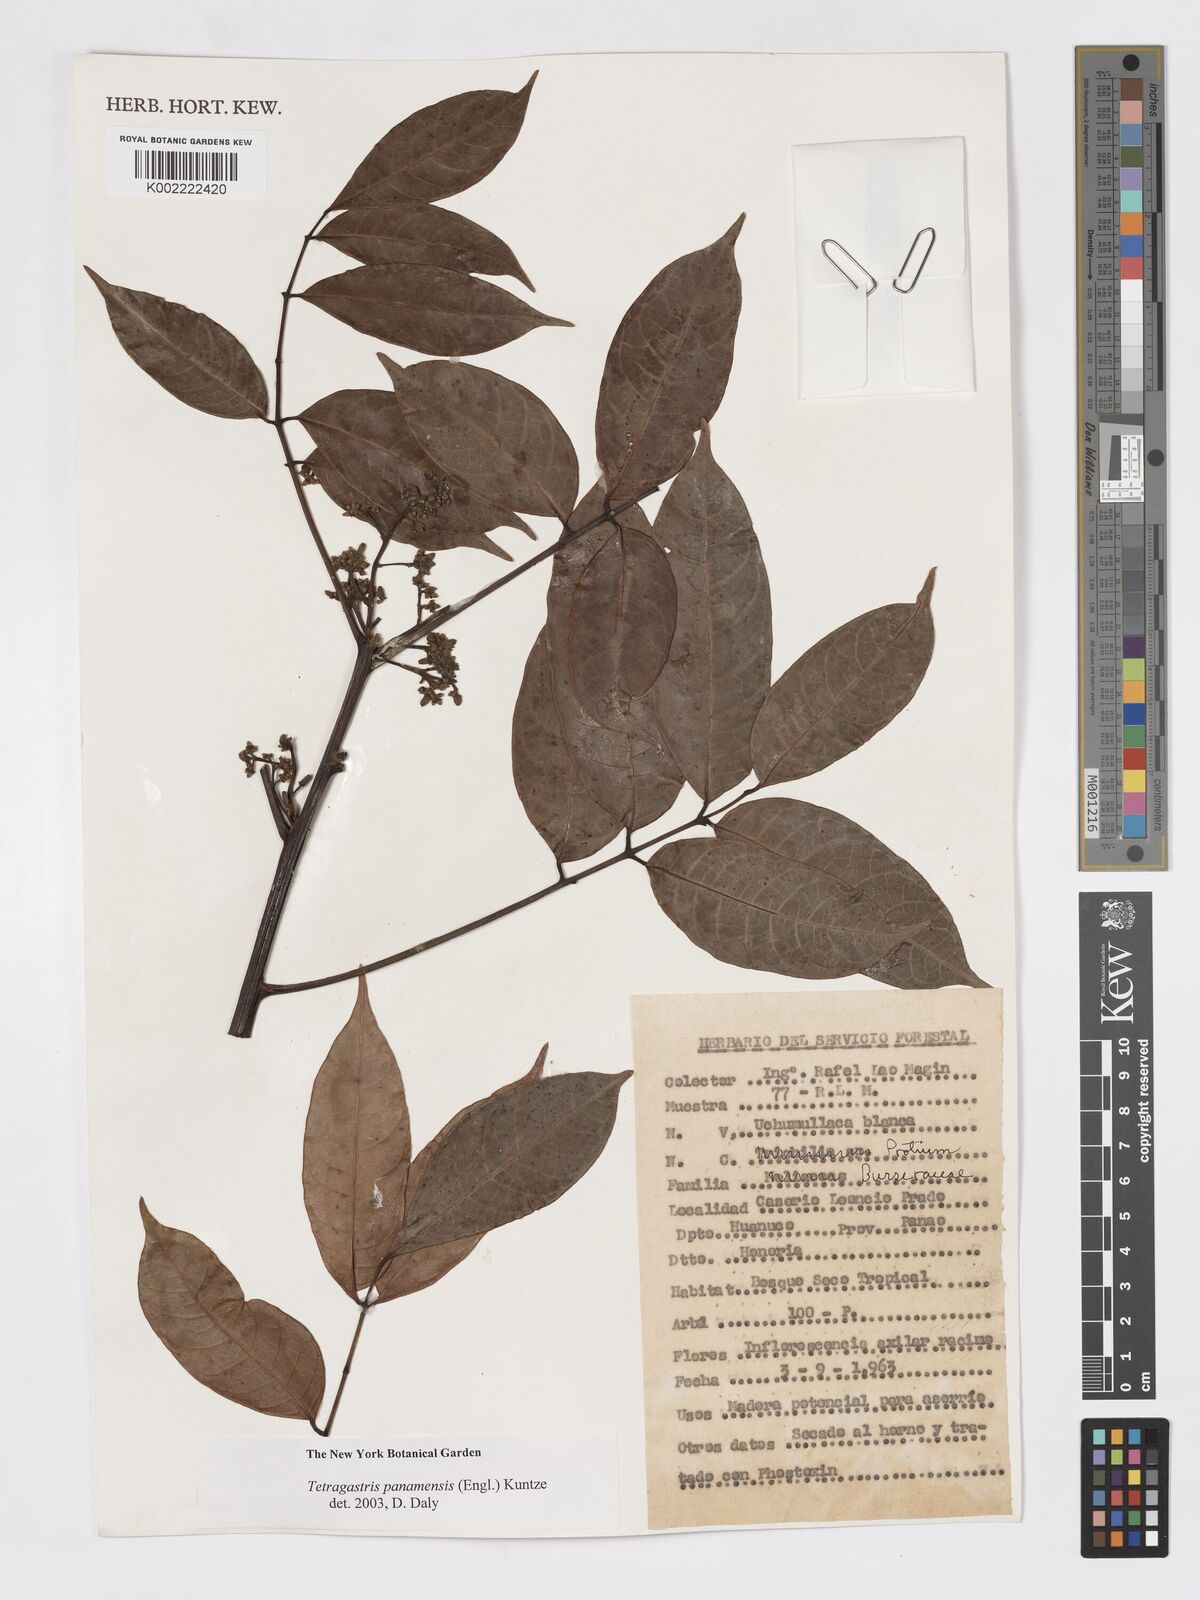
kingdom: Plantae
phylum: Tracheophyta
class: Magnoliopsida
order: Sapindales
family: Burseraceae
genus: Tetragastris
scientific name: Tetragastris panamensis
